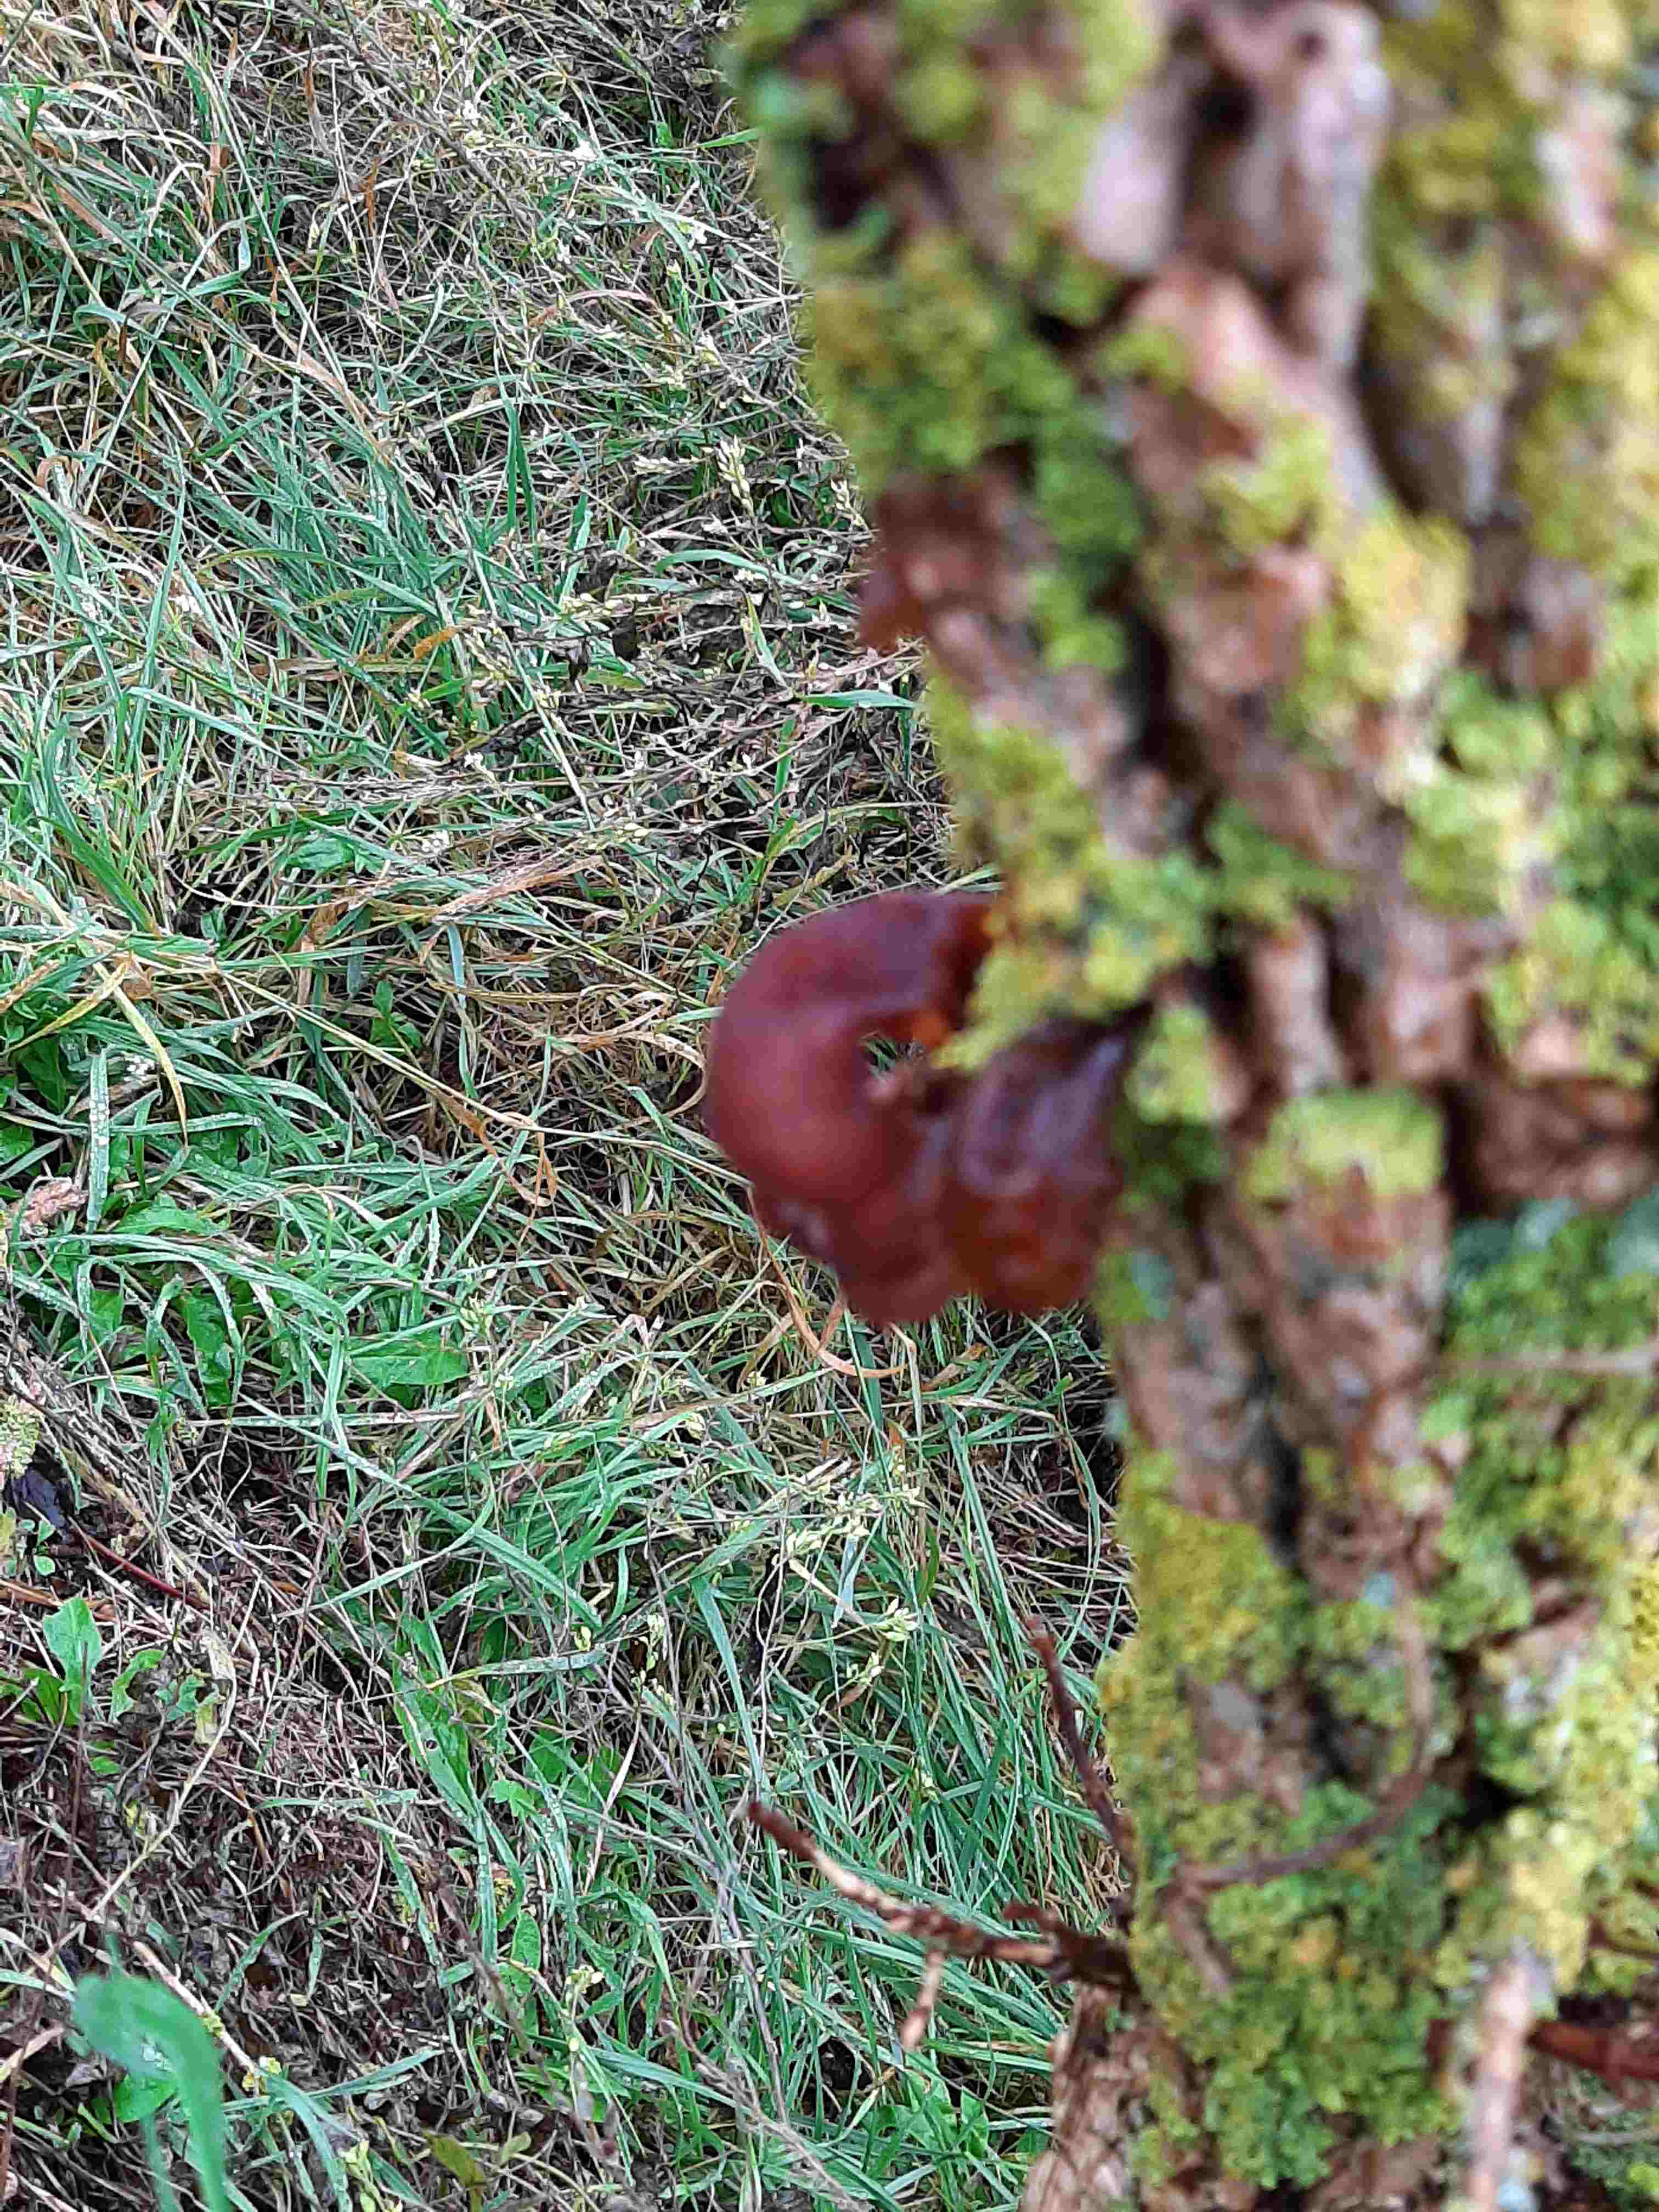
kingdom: Fungi
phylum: Basidiomycota
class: Agaricomycetes
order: Auriculariales
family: Auriculariaceae
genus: Auricularia
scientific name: Auricularia auricula-judae
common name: almindelig judasøre
